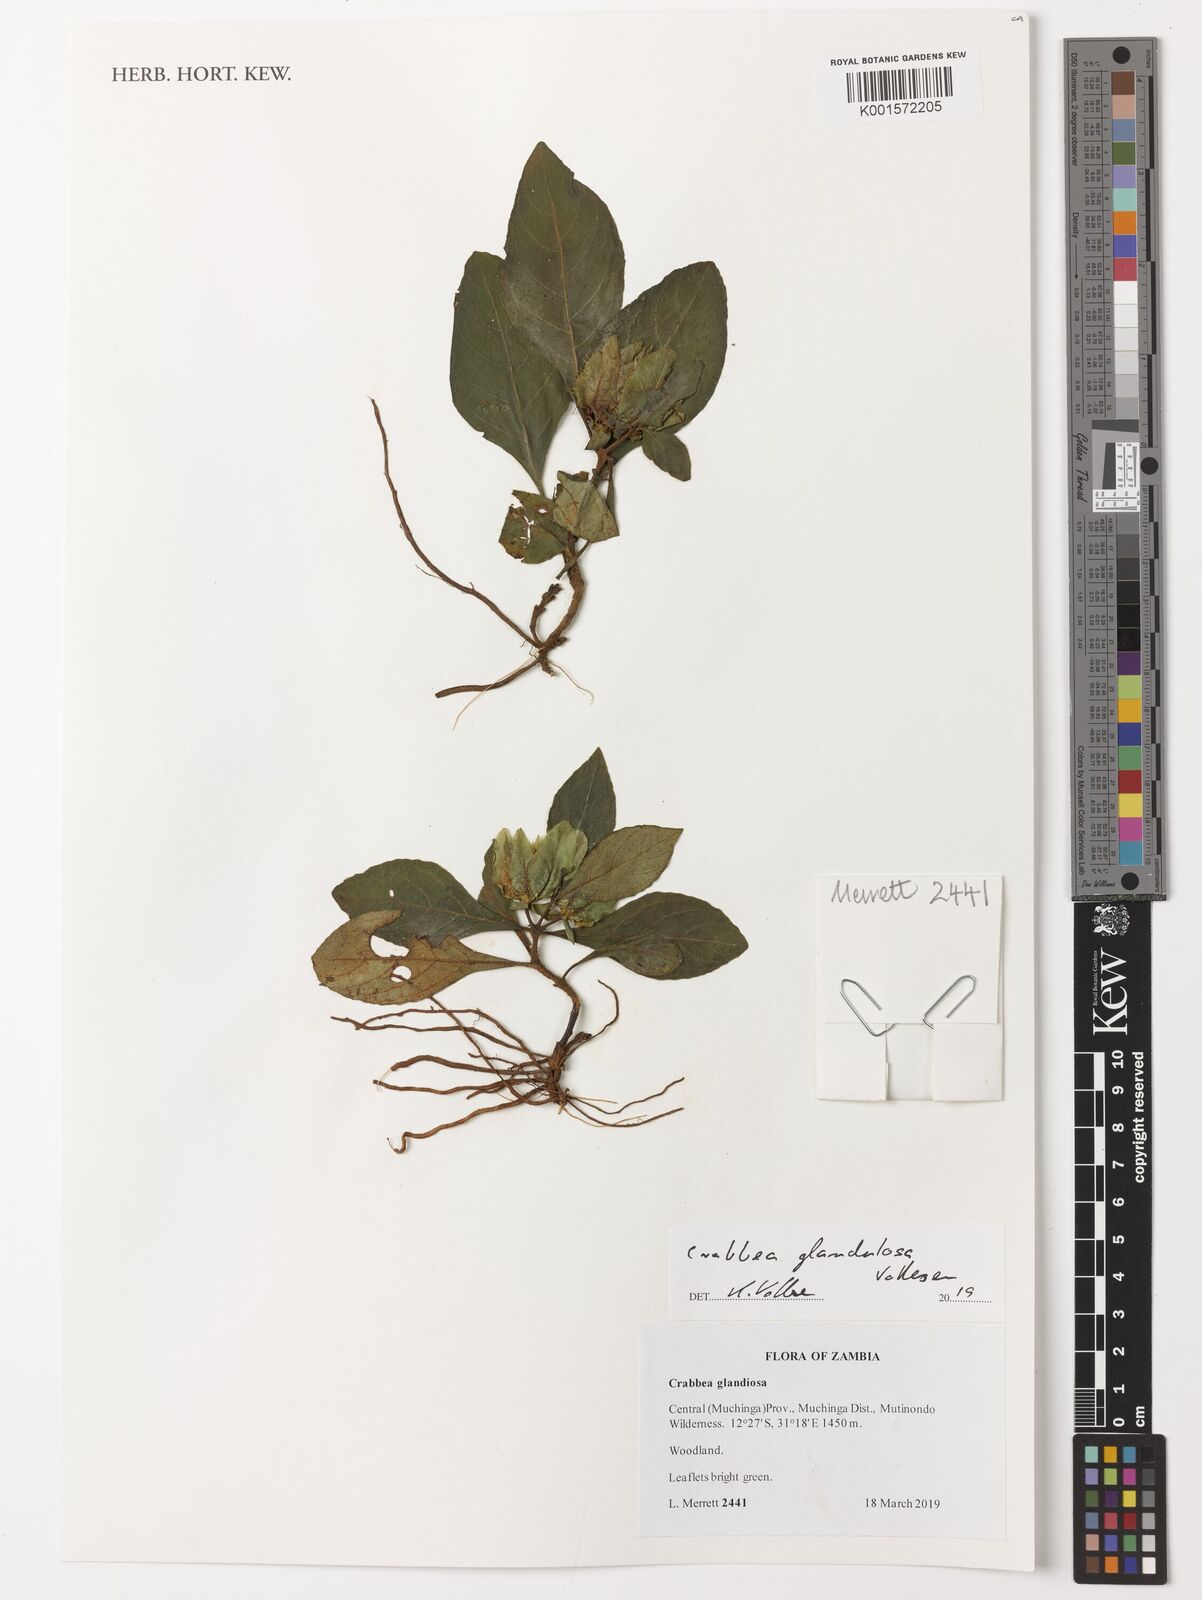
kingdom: Plantae
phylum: Tracheophyta
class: Magnoliopsida
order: Lamiales
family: Acanthaceae
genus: Crabbea
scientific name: Crabbea glandulosa
